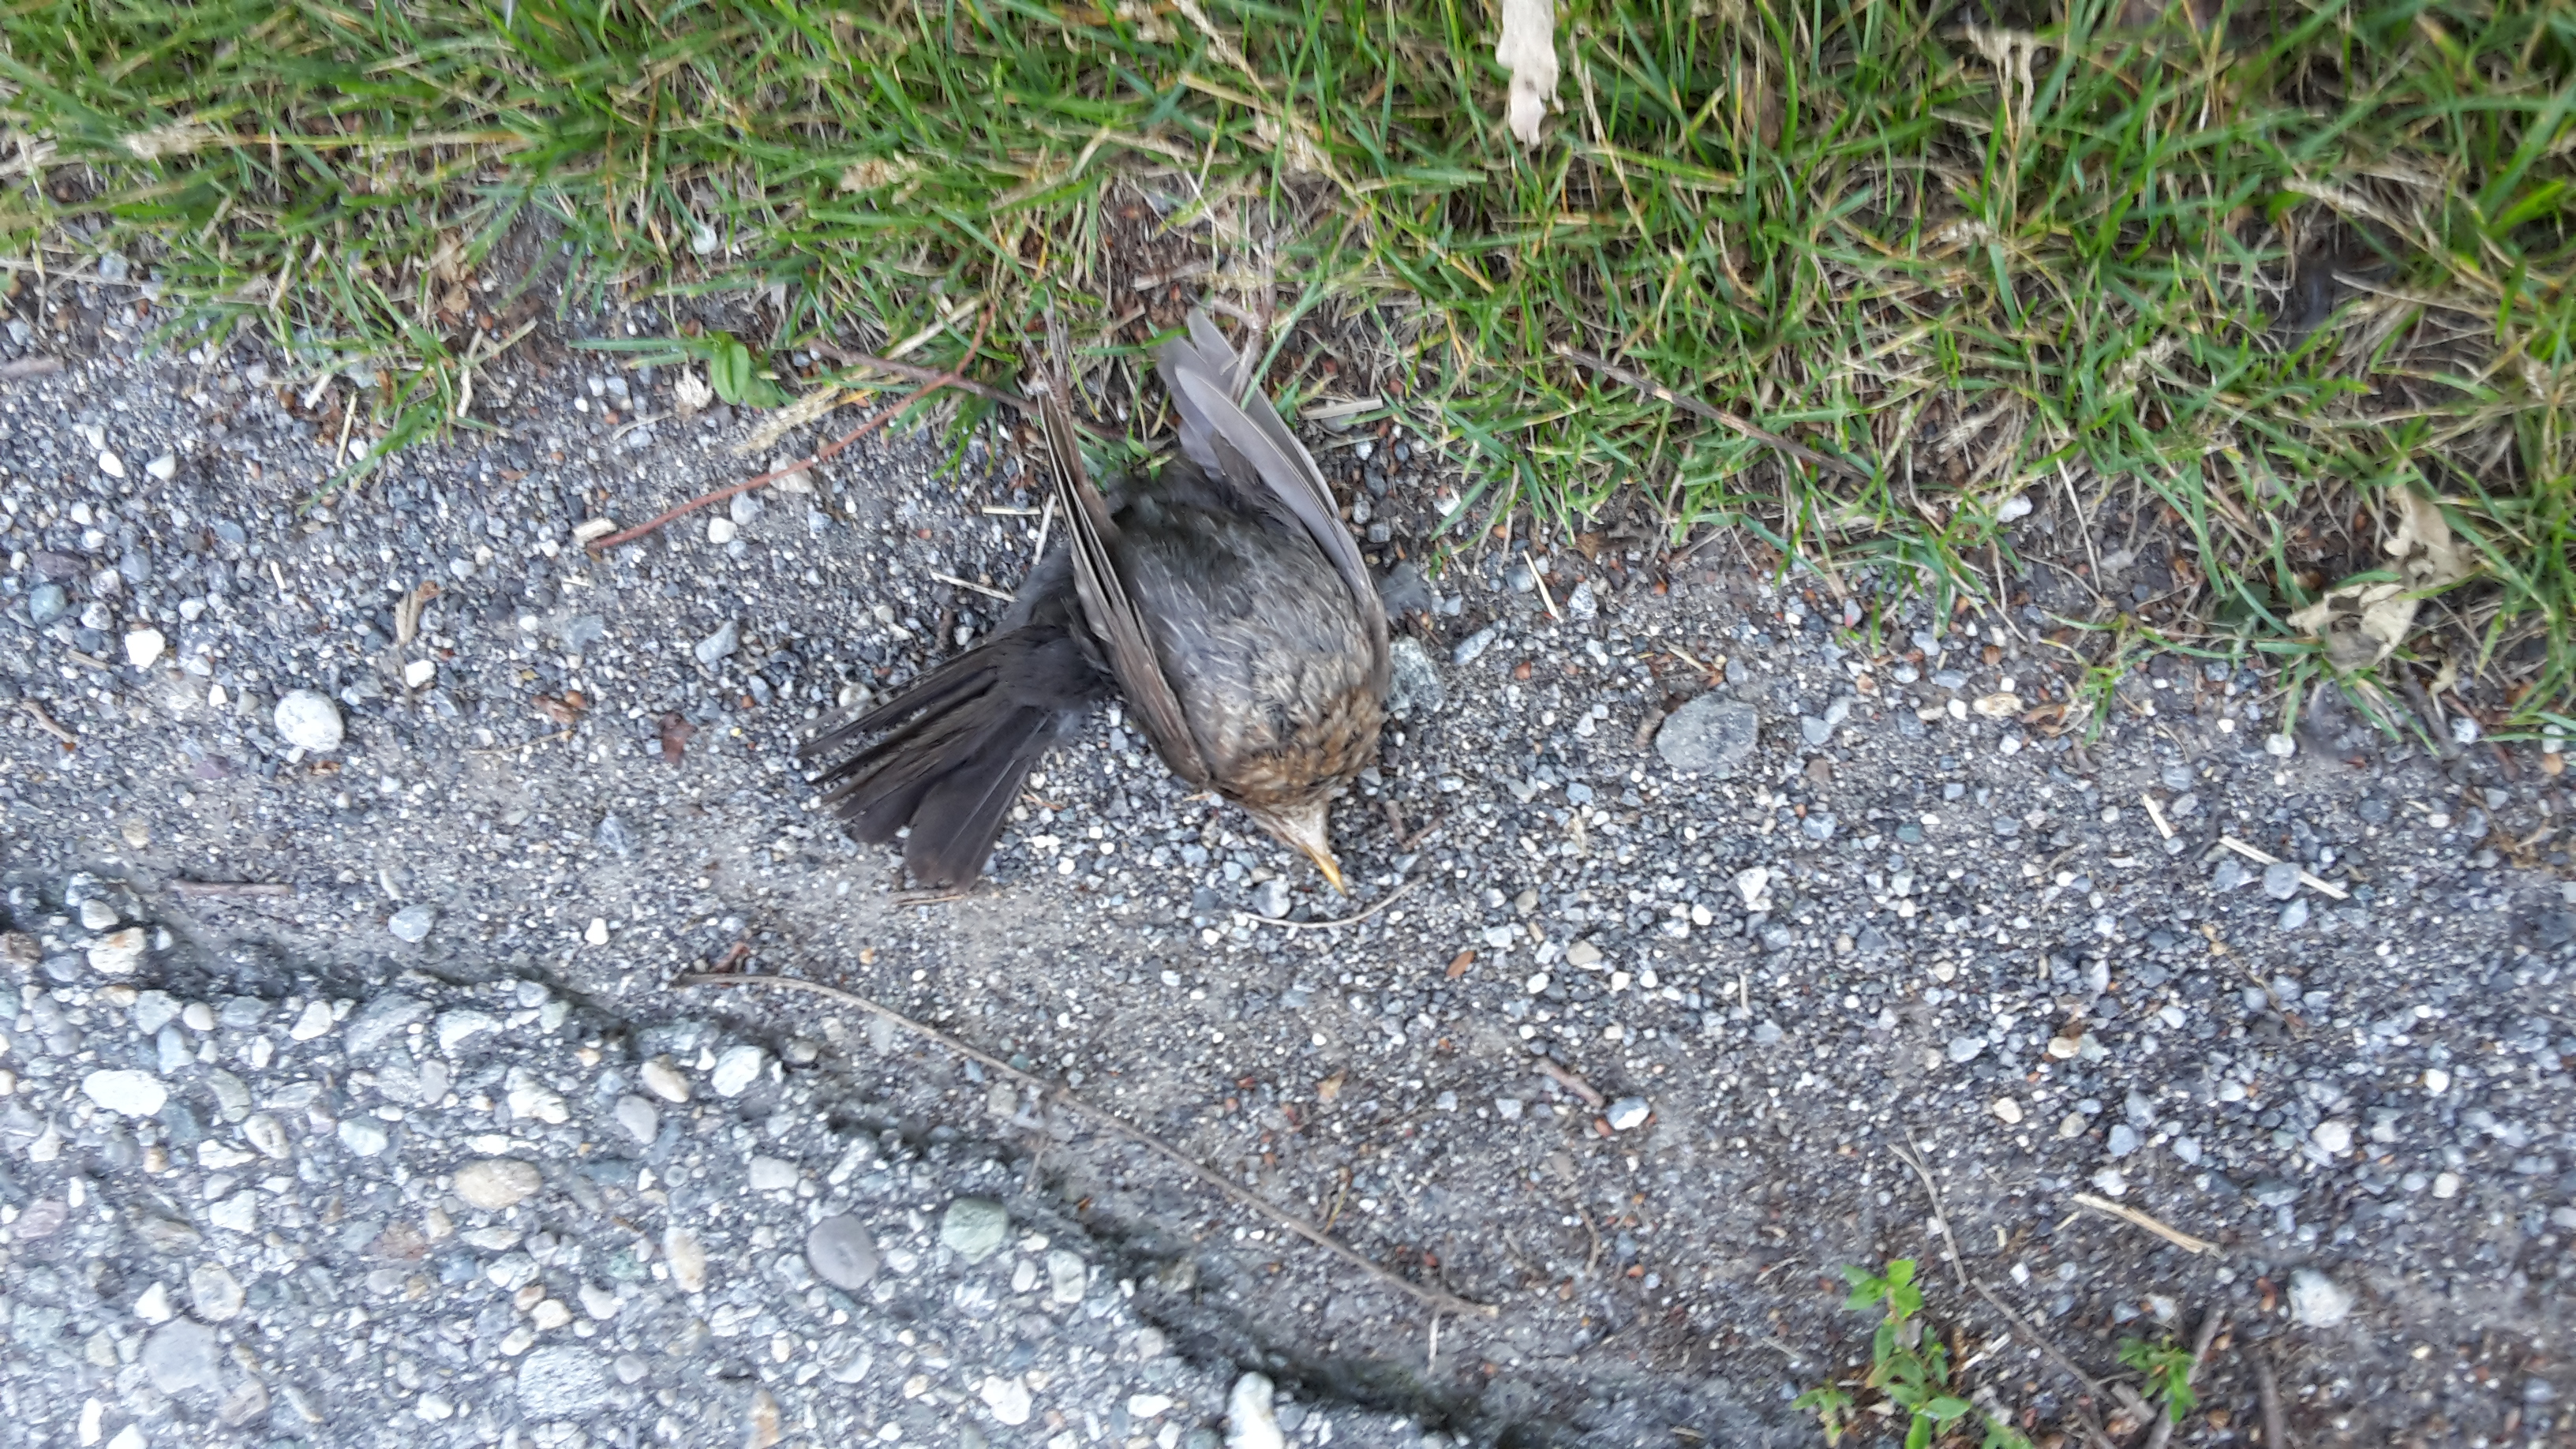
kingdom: Animalia
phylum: Chordata
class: Aves
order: Passeriformes
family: Turdidae
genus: Turdus
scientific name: Turdus merula
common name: Common blackbird
